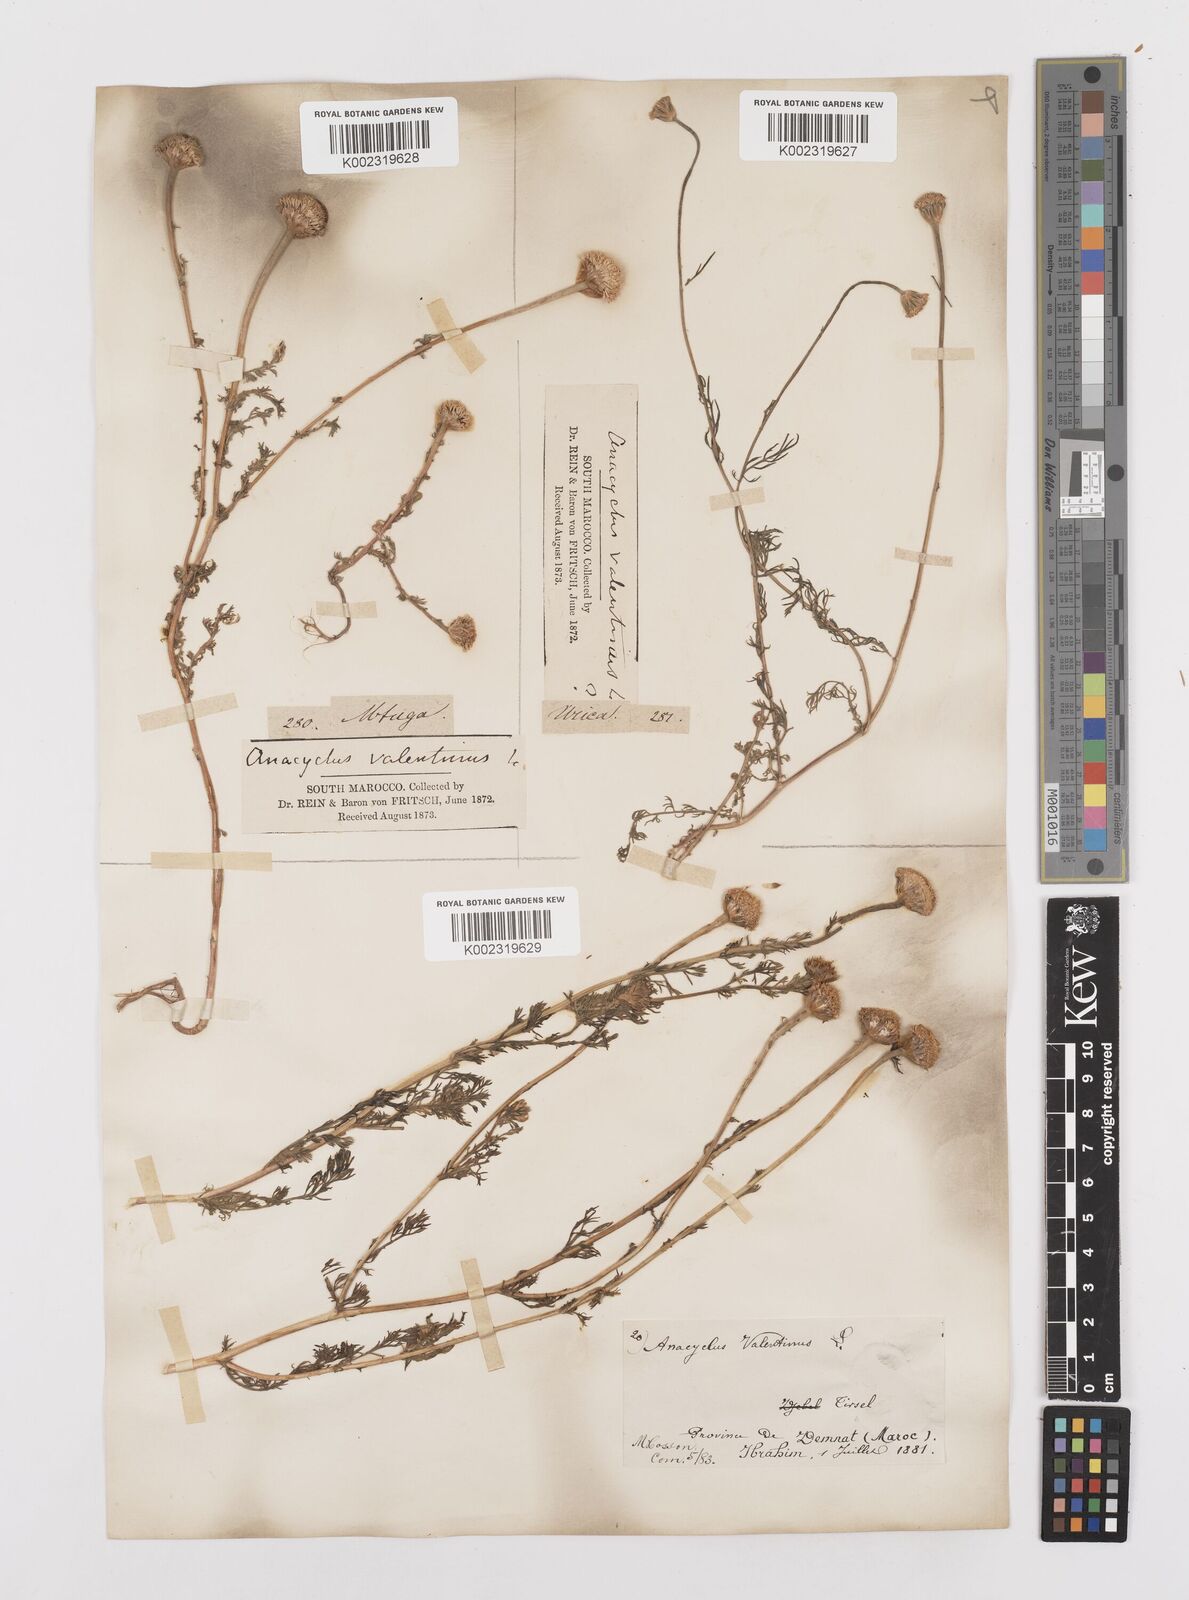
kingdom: Plantae
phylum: Tracheophyta
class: Magnoliopsida
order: Asterales
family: Asteraceae
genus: Anacyclus
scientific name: Anacyclus valentinus
